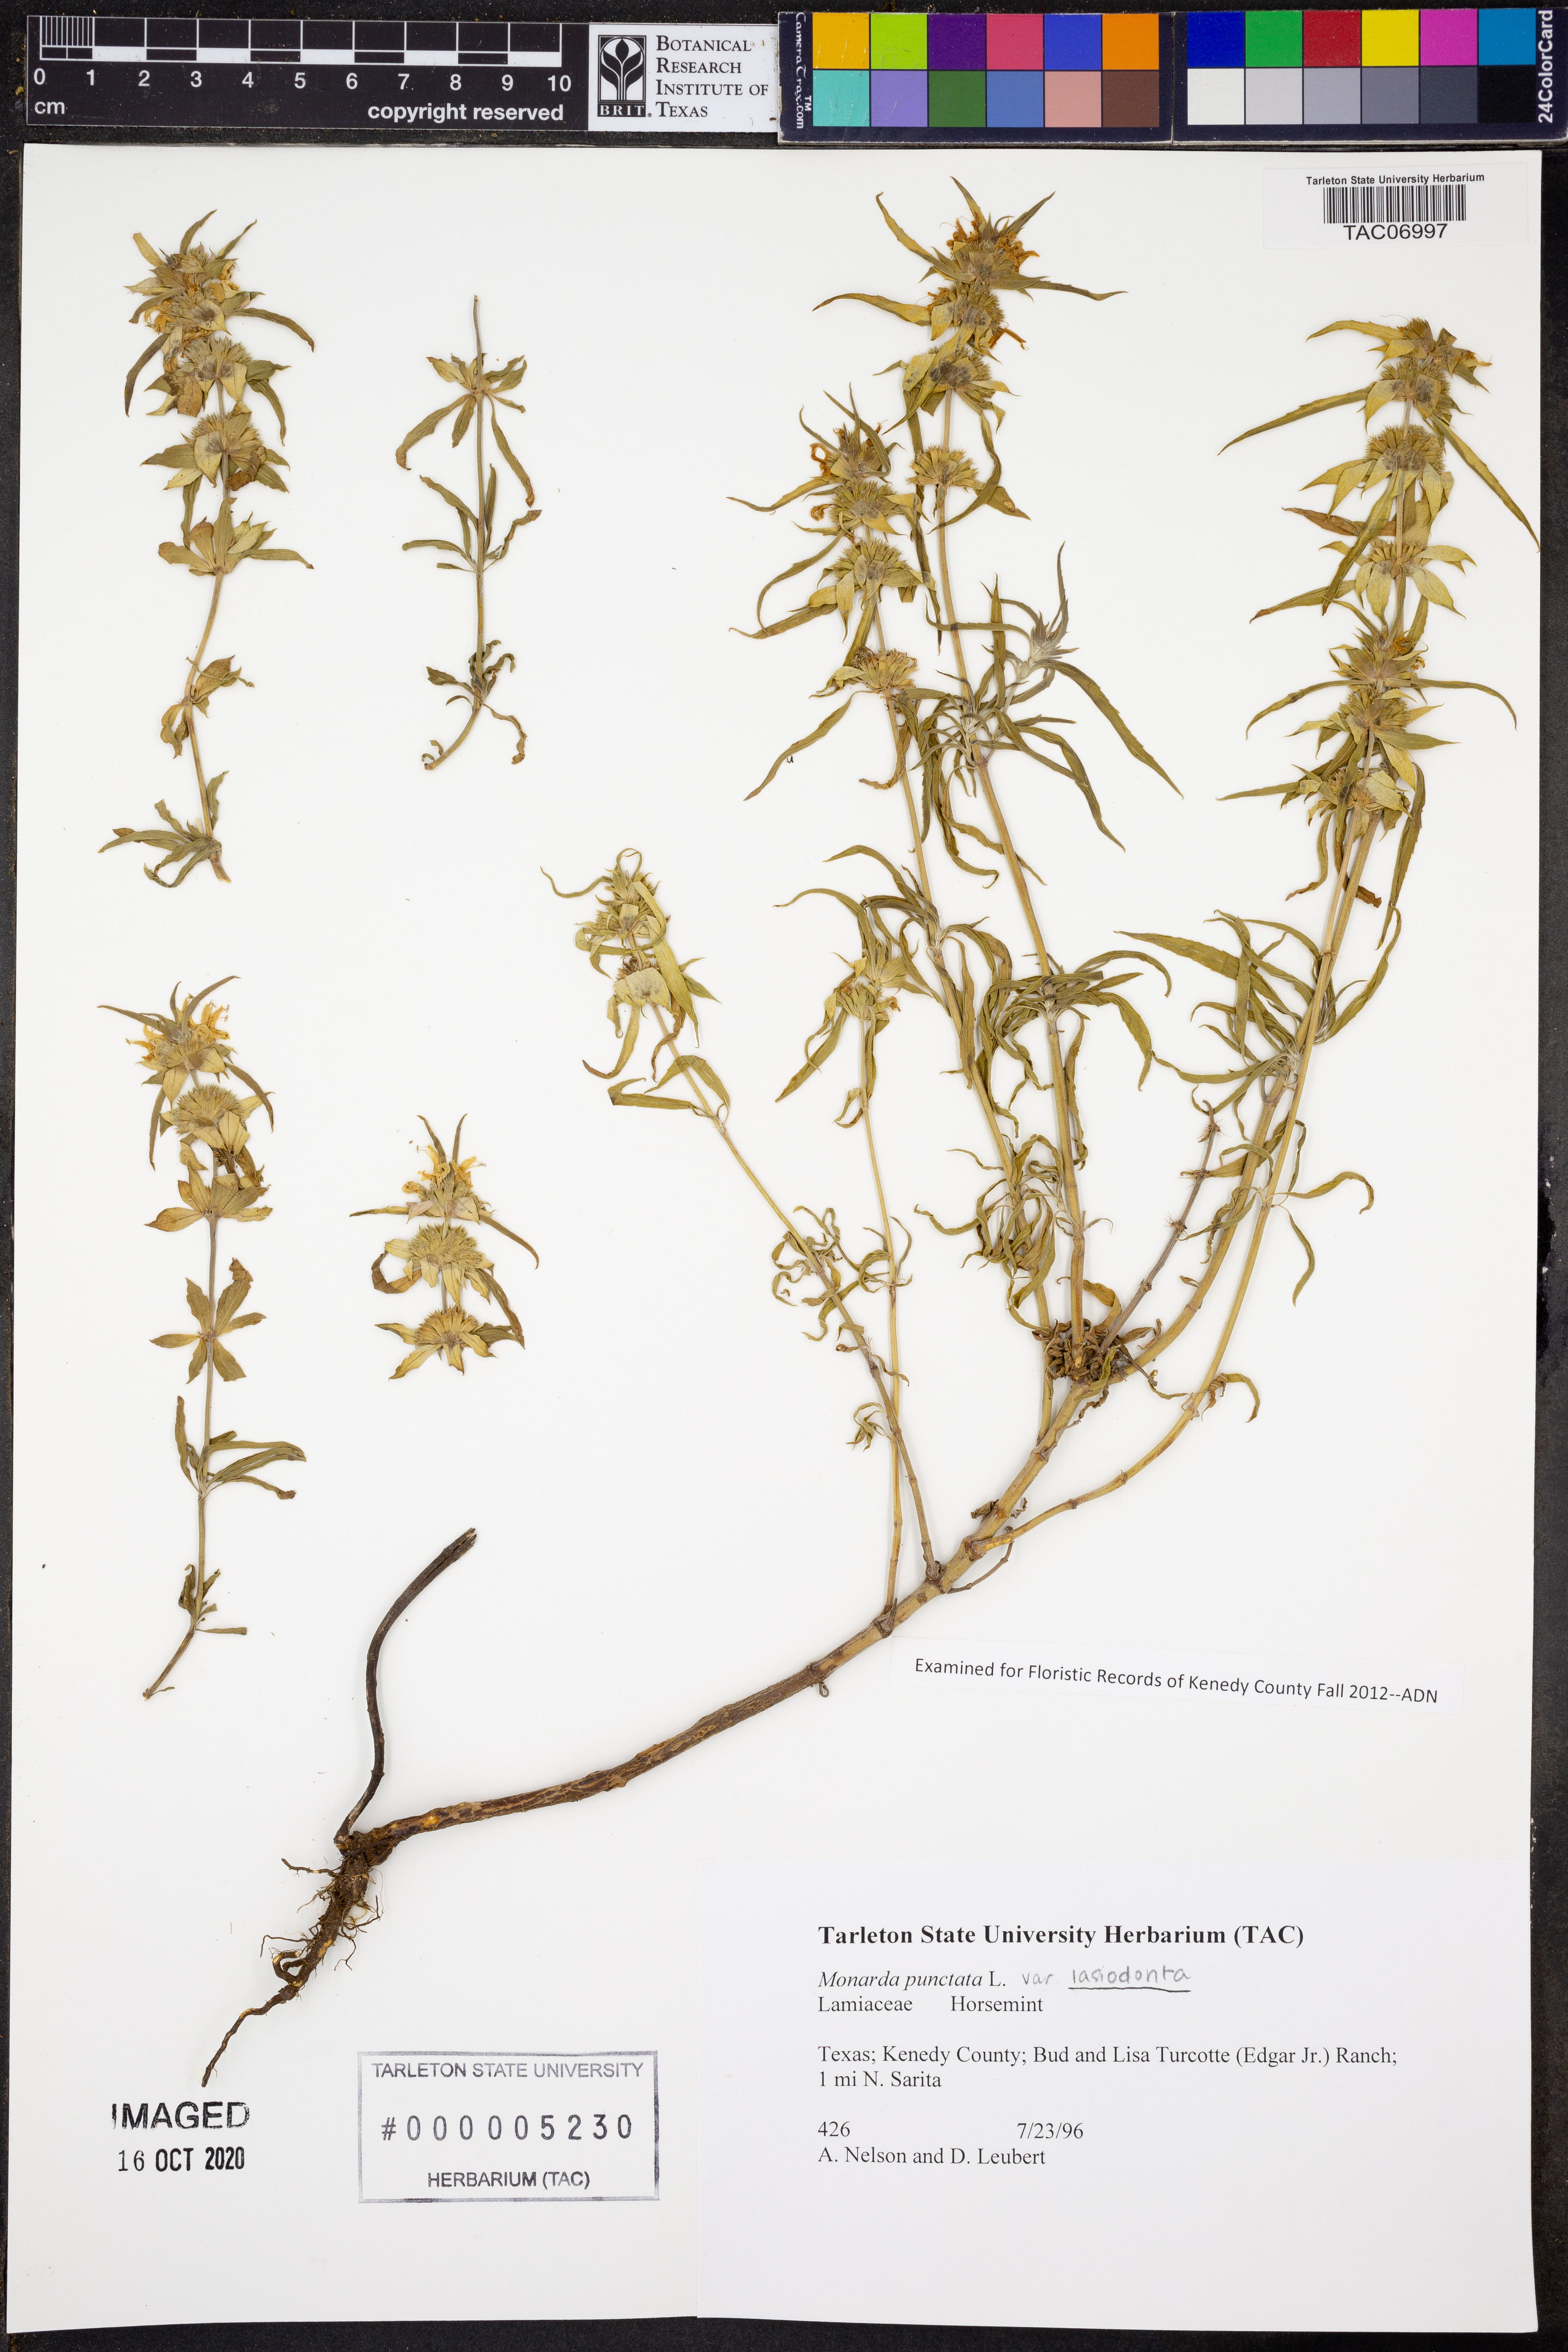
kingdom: Plantae
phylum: Tracheophyta
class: Magnoliopsida
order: Lamiales
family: Lamiaceae
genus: Monarda
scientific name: Monarda punctata
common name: Dotted monarda
